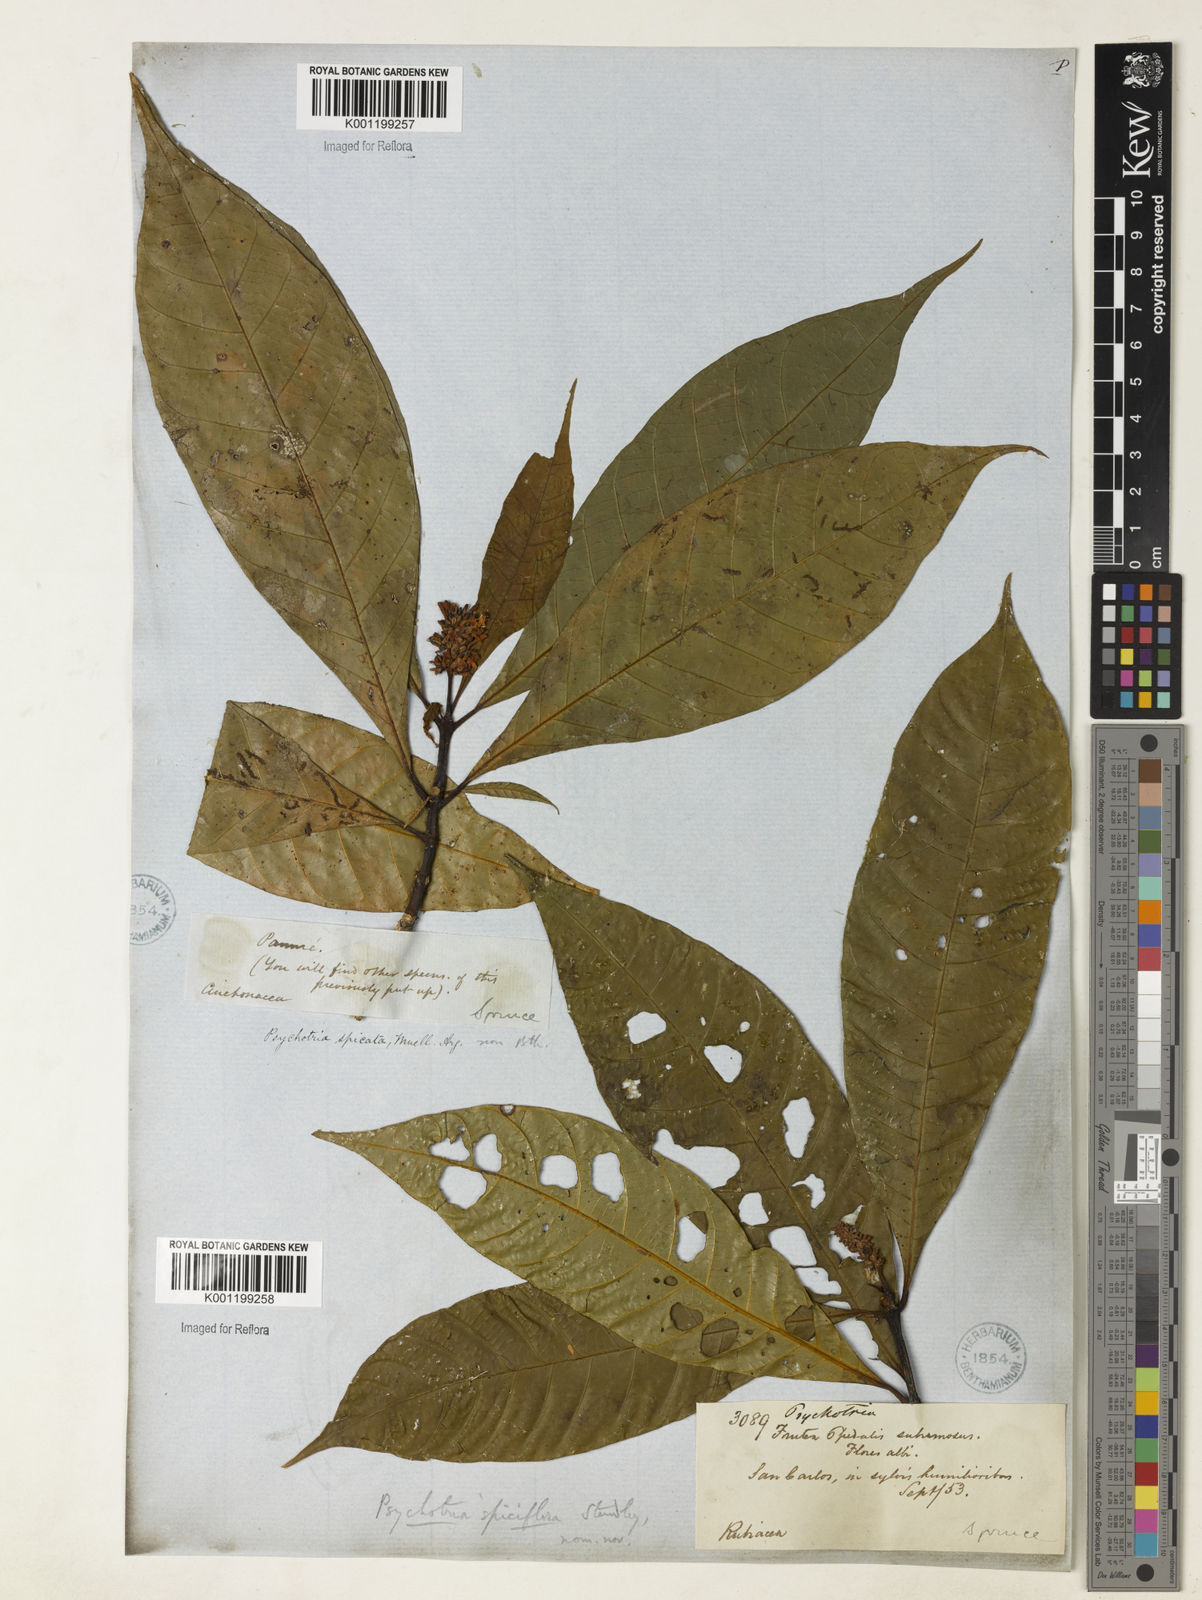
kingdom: Plantae
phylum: Tracheophyta
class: Magnoliopsida
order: Gentianales
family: Rubiaceae
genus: Palicourea
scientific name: Palicourea spicata
